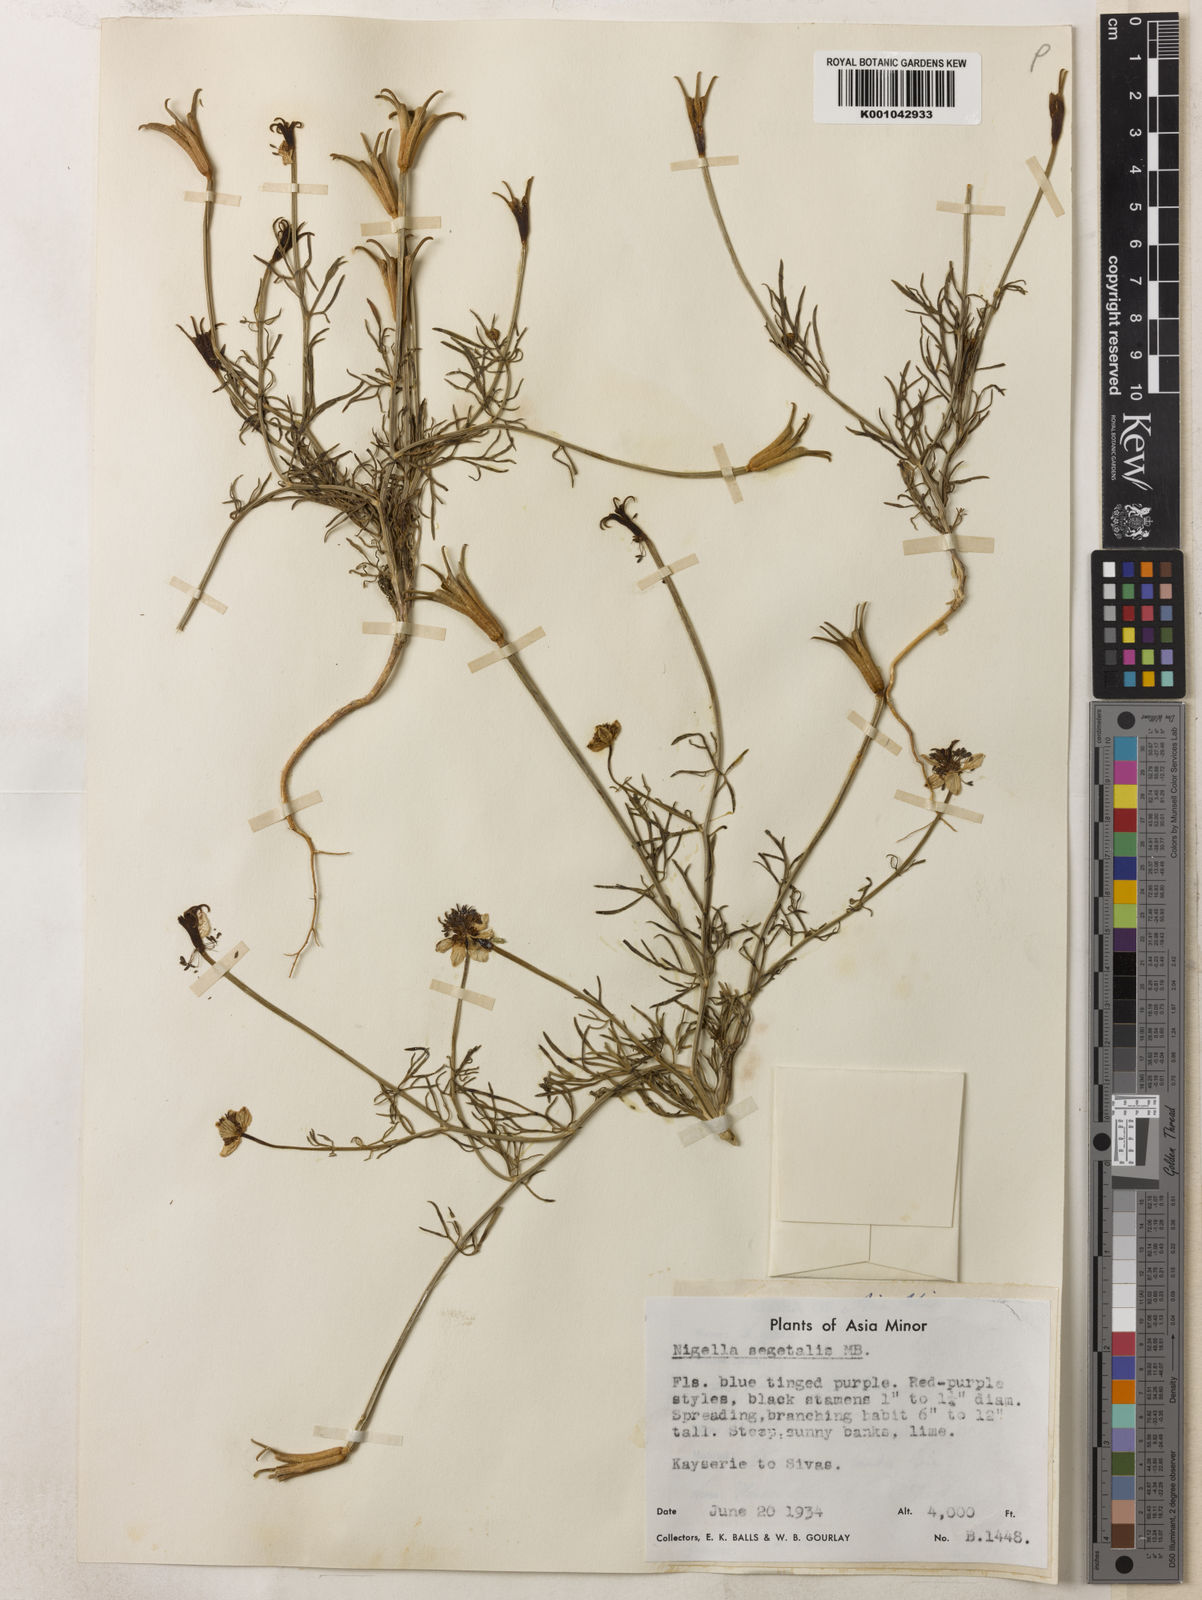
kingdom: Plantae
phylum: Tracheophyta
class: Magnoliopsida
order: Ranunculales
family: Ranunculaceae
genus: Nigella
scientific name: Nigella segetalis
